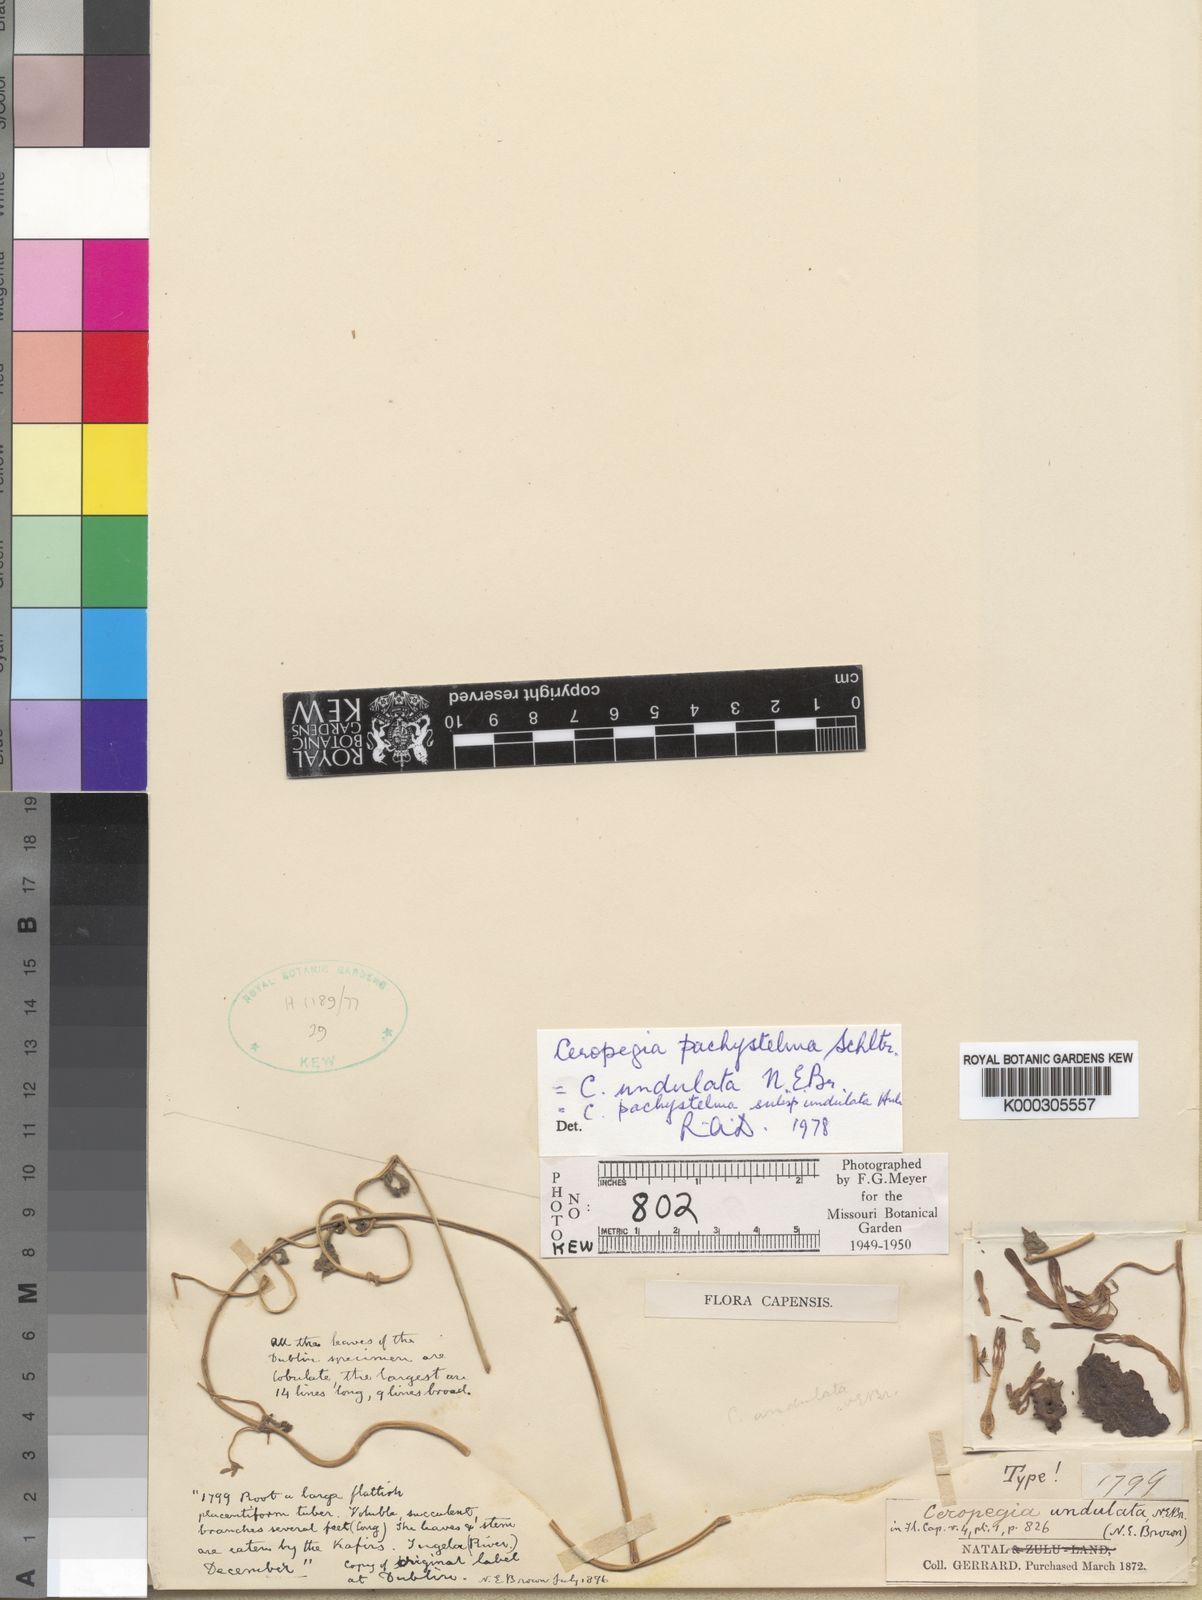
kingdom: Plantae
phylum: Tracheophyta
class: Magnoliopsida
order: Gentianales
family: Apocynaceae
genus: Ceropegia
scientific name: Ceropegia pachystelma
